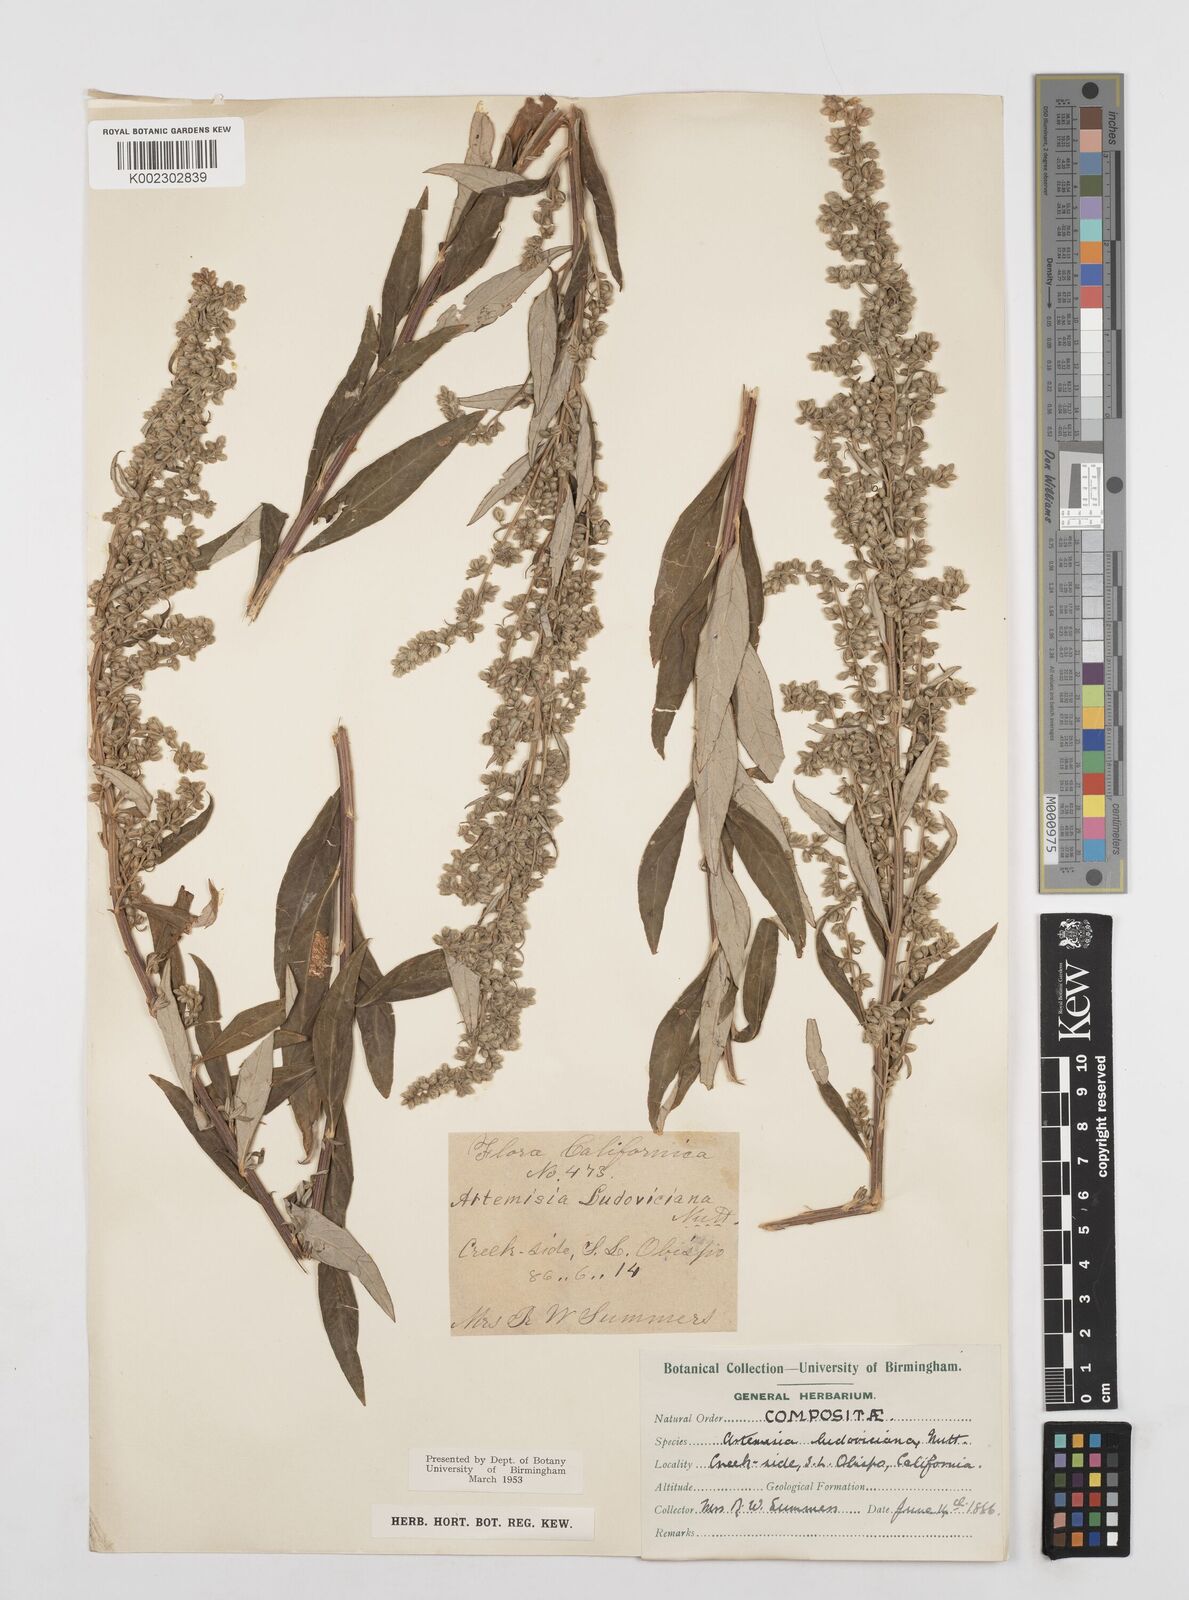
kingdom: Plantae
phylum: Tracheophyta
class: Magnoliopsida
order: Asterales
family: Asteraceae
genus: Artemisia
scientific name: Artemisia ludoviciana
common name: Western mugwort
